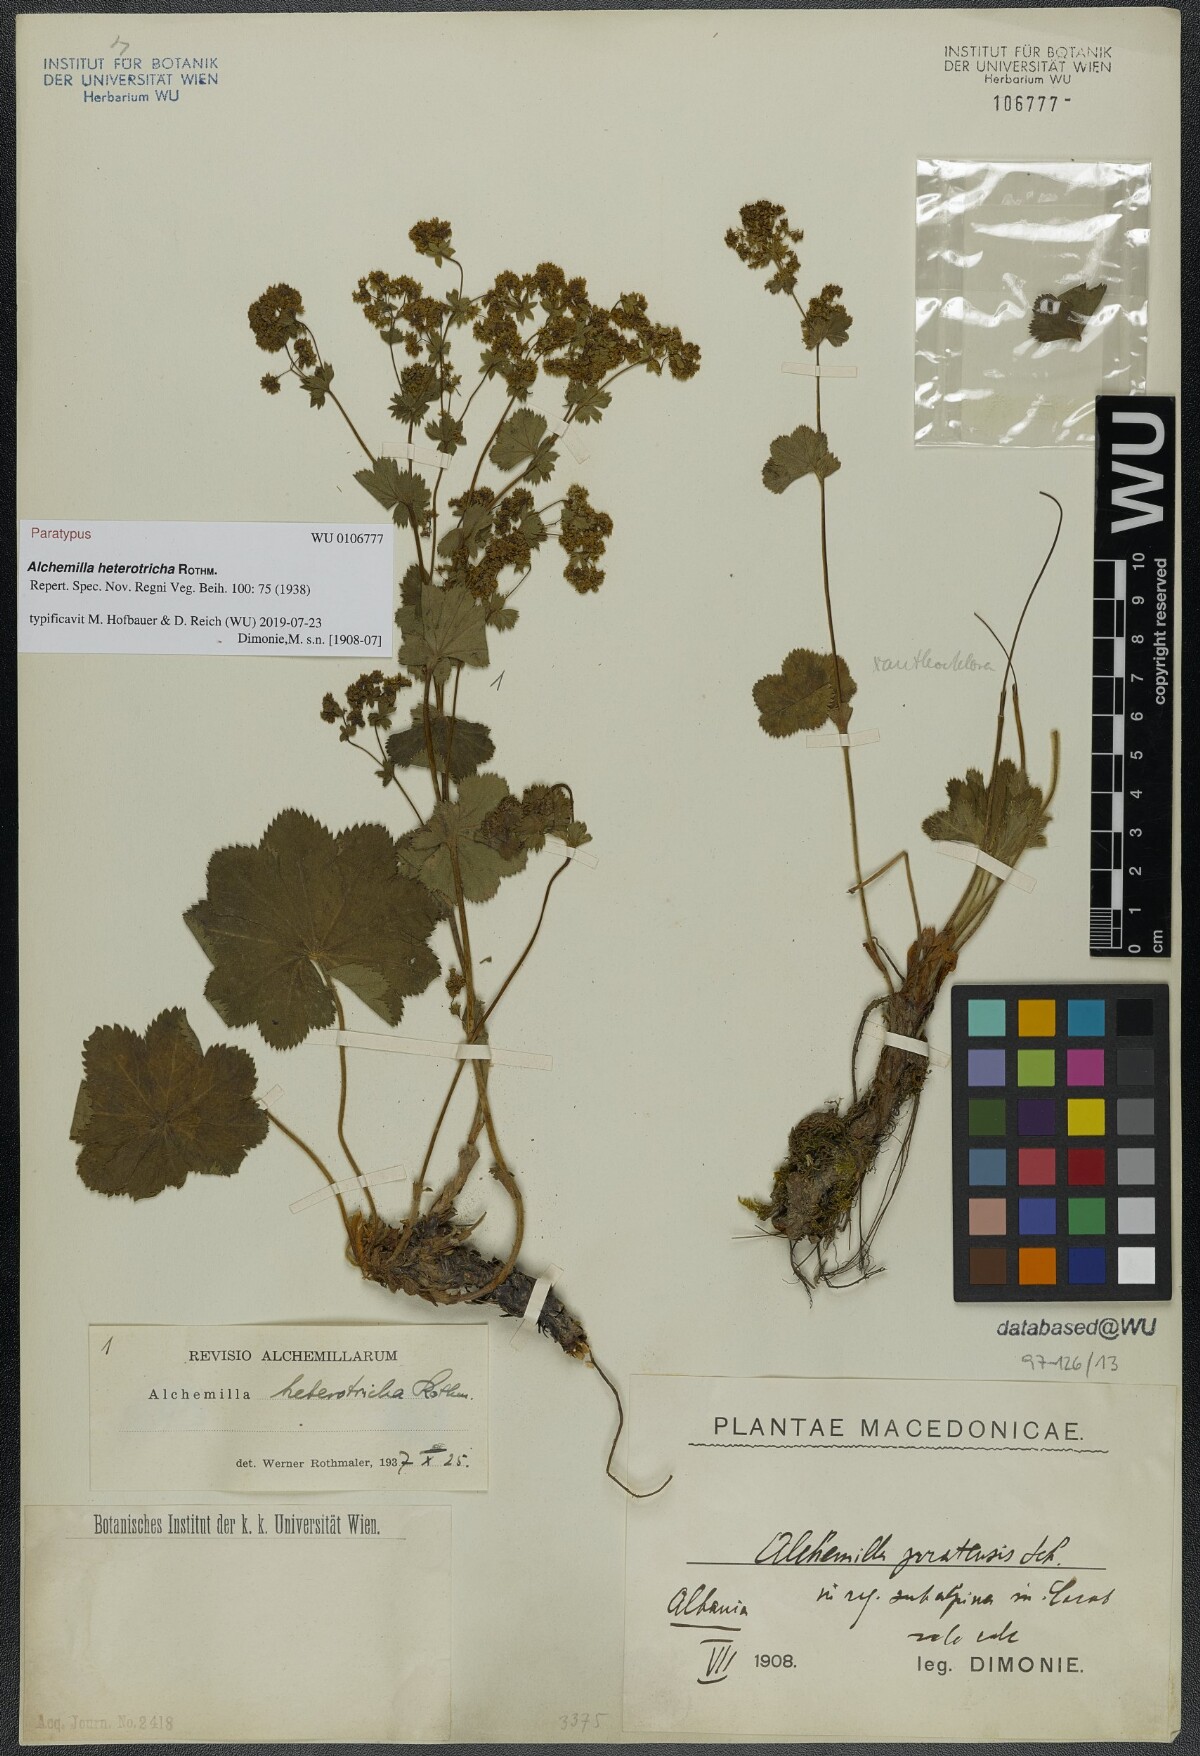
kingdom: Plantae
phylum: Tracheophyta
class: Magnoliopsida
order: Rosales
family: Rosaceae
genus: Alchemilla
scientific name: Alchemilla heterotricha
